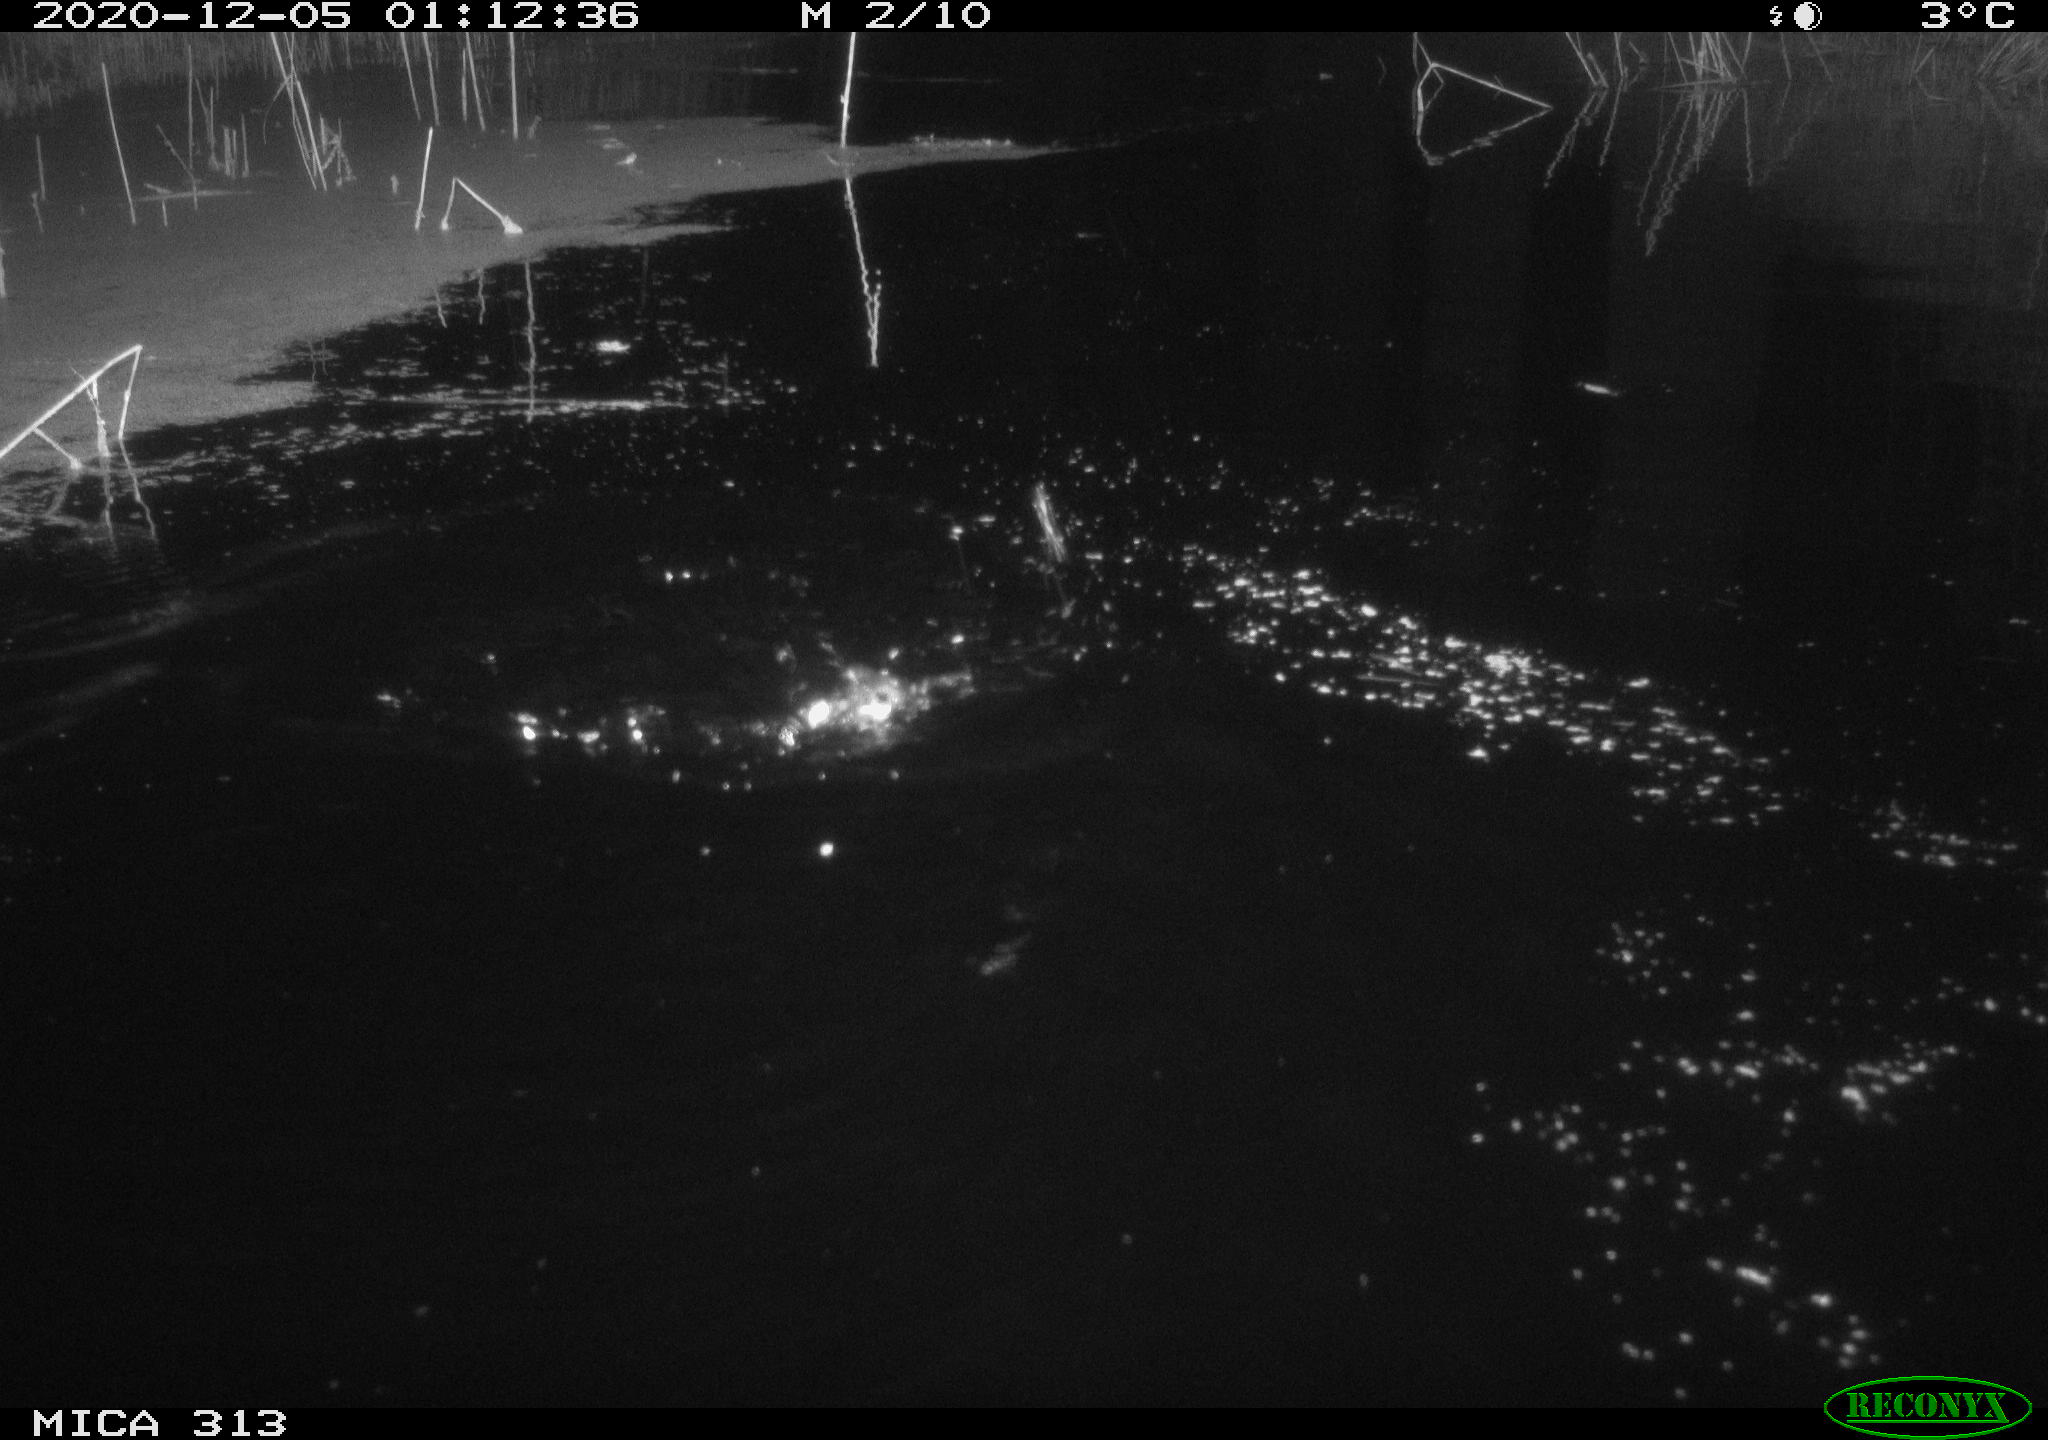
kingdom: Animalia
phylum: Chordata
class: Mammalia
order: Rodentia
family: Muridae
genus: Rattus
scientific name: Rattus norvegicus
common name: Brown rat
